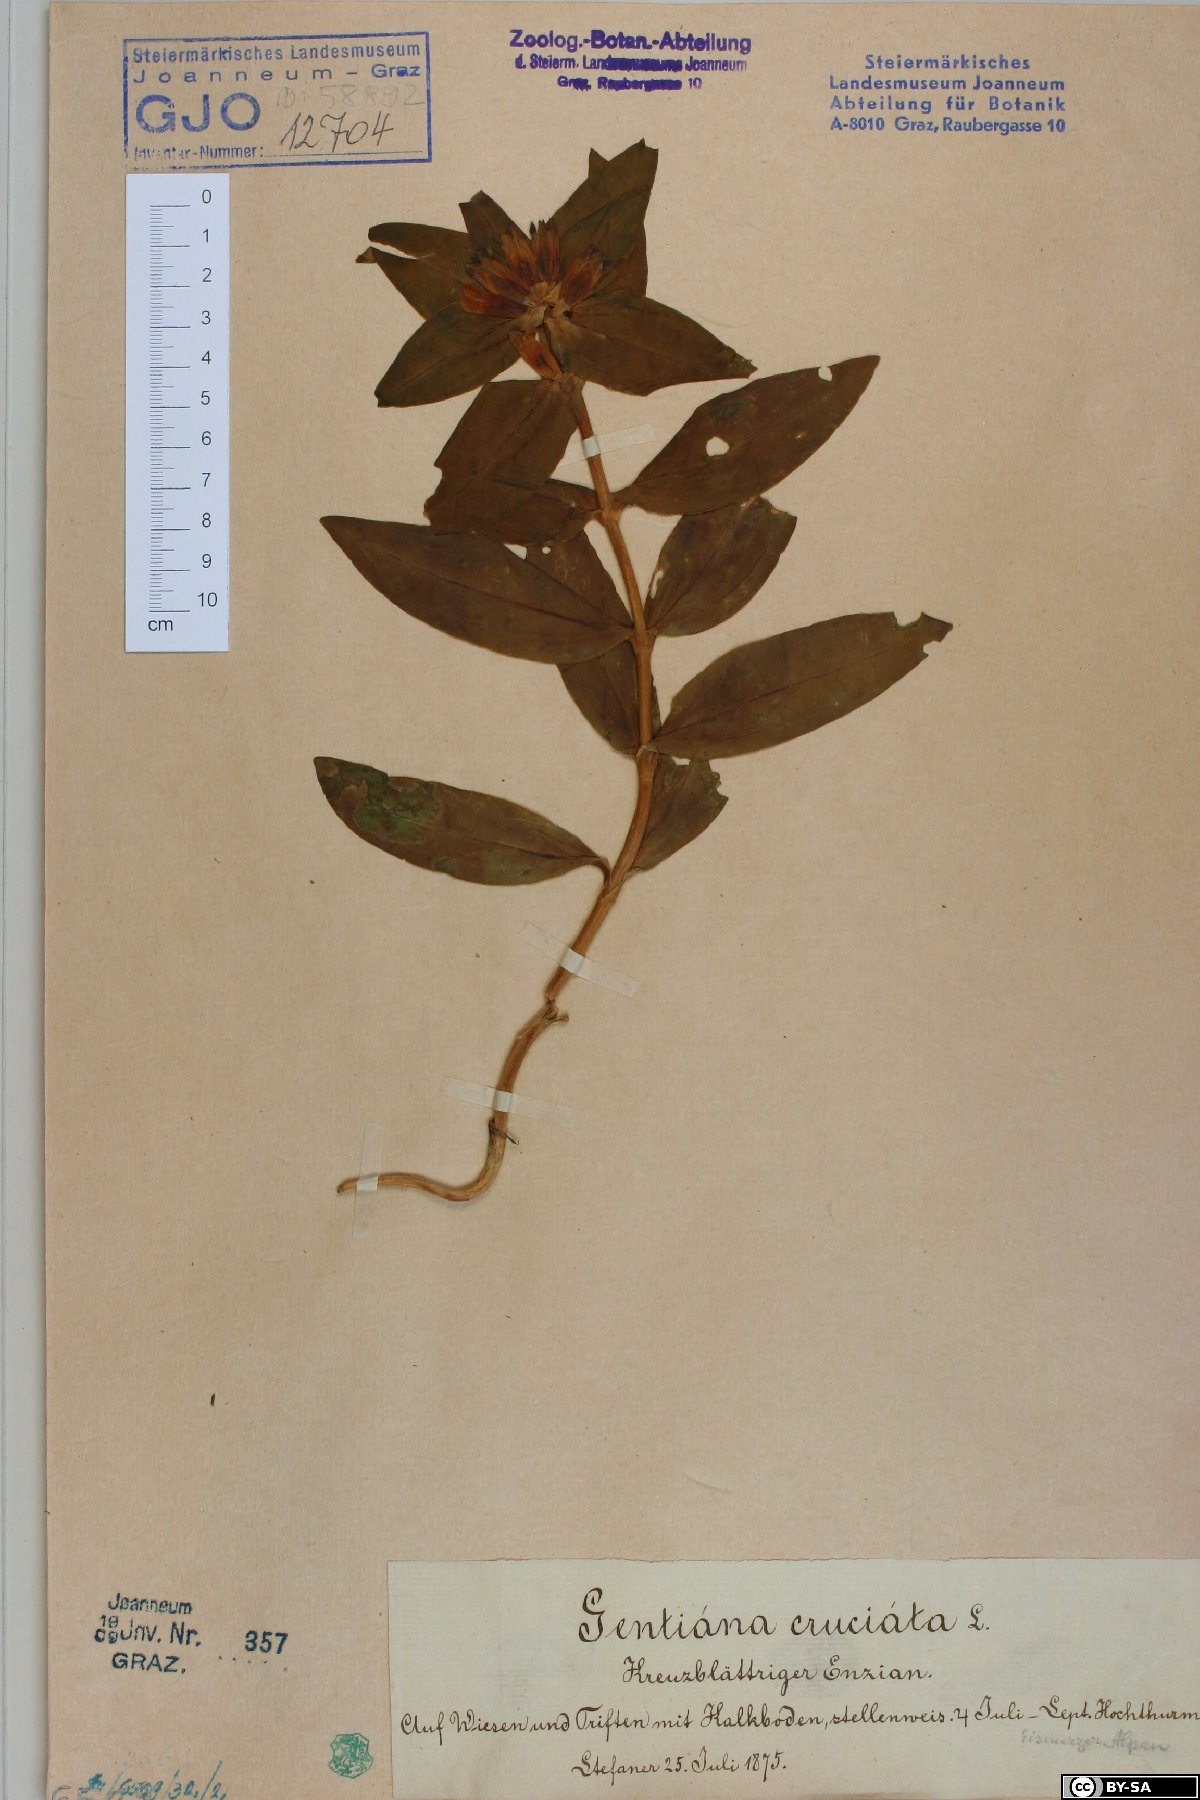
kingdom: Plantae
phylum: Tracheophyta
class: Magnoliopsida
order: Gentianales
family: Gentianaceae
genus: Gentiana
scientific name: Gentiana cruciata
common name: Cross gentian
